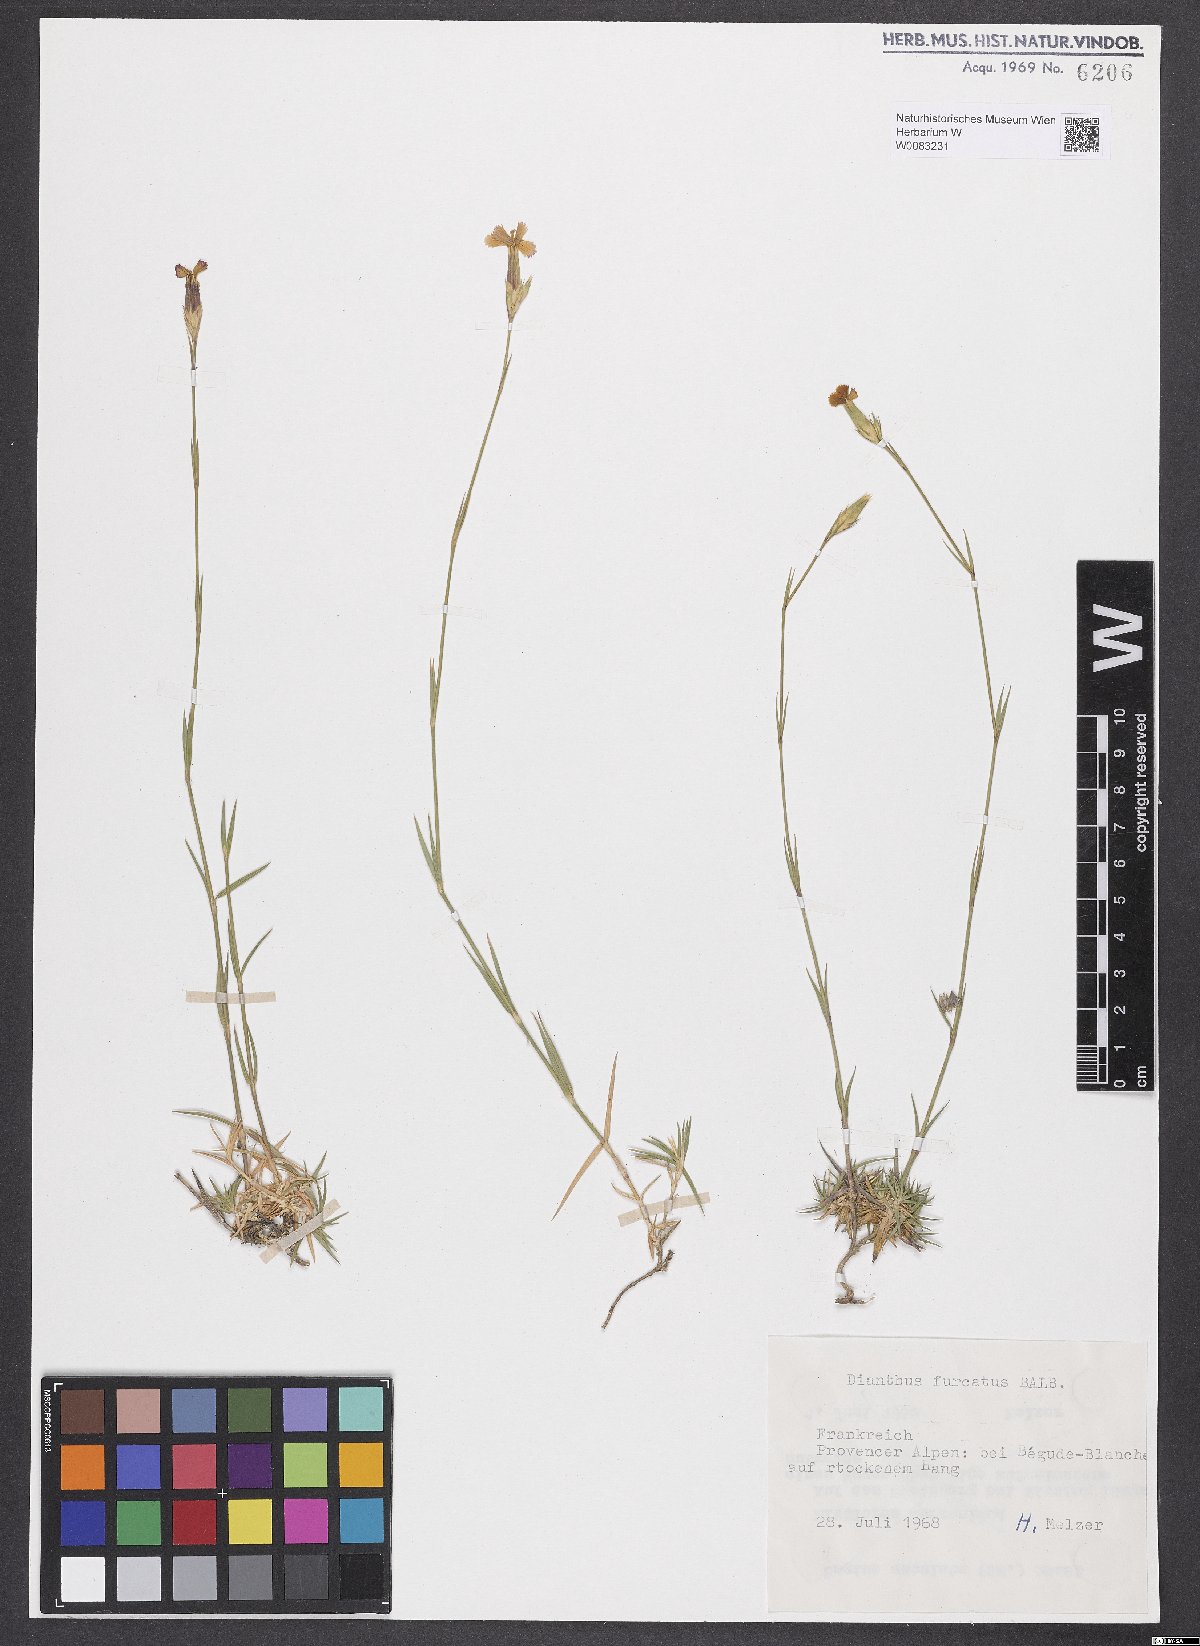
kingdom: Plantae
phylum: Tracheophyta
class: Magnoliopsida
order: Caryophyllales
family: Caryophyllaceae
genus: Dianthus
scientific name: Dianthus furcatus
